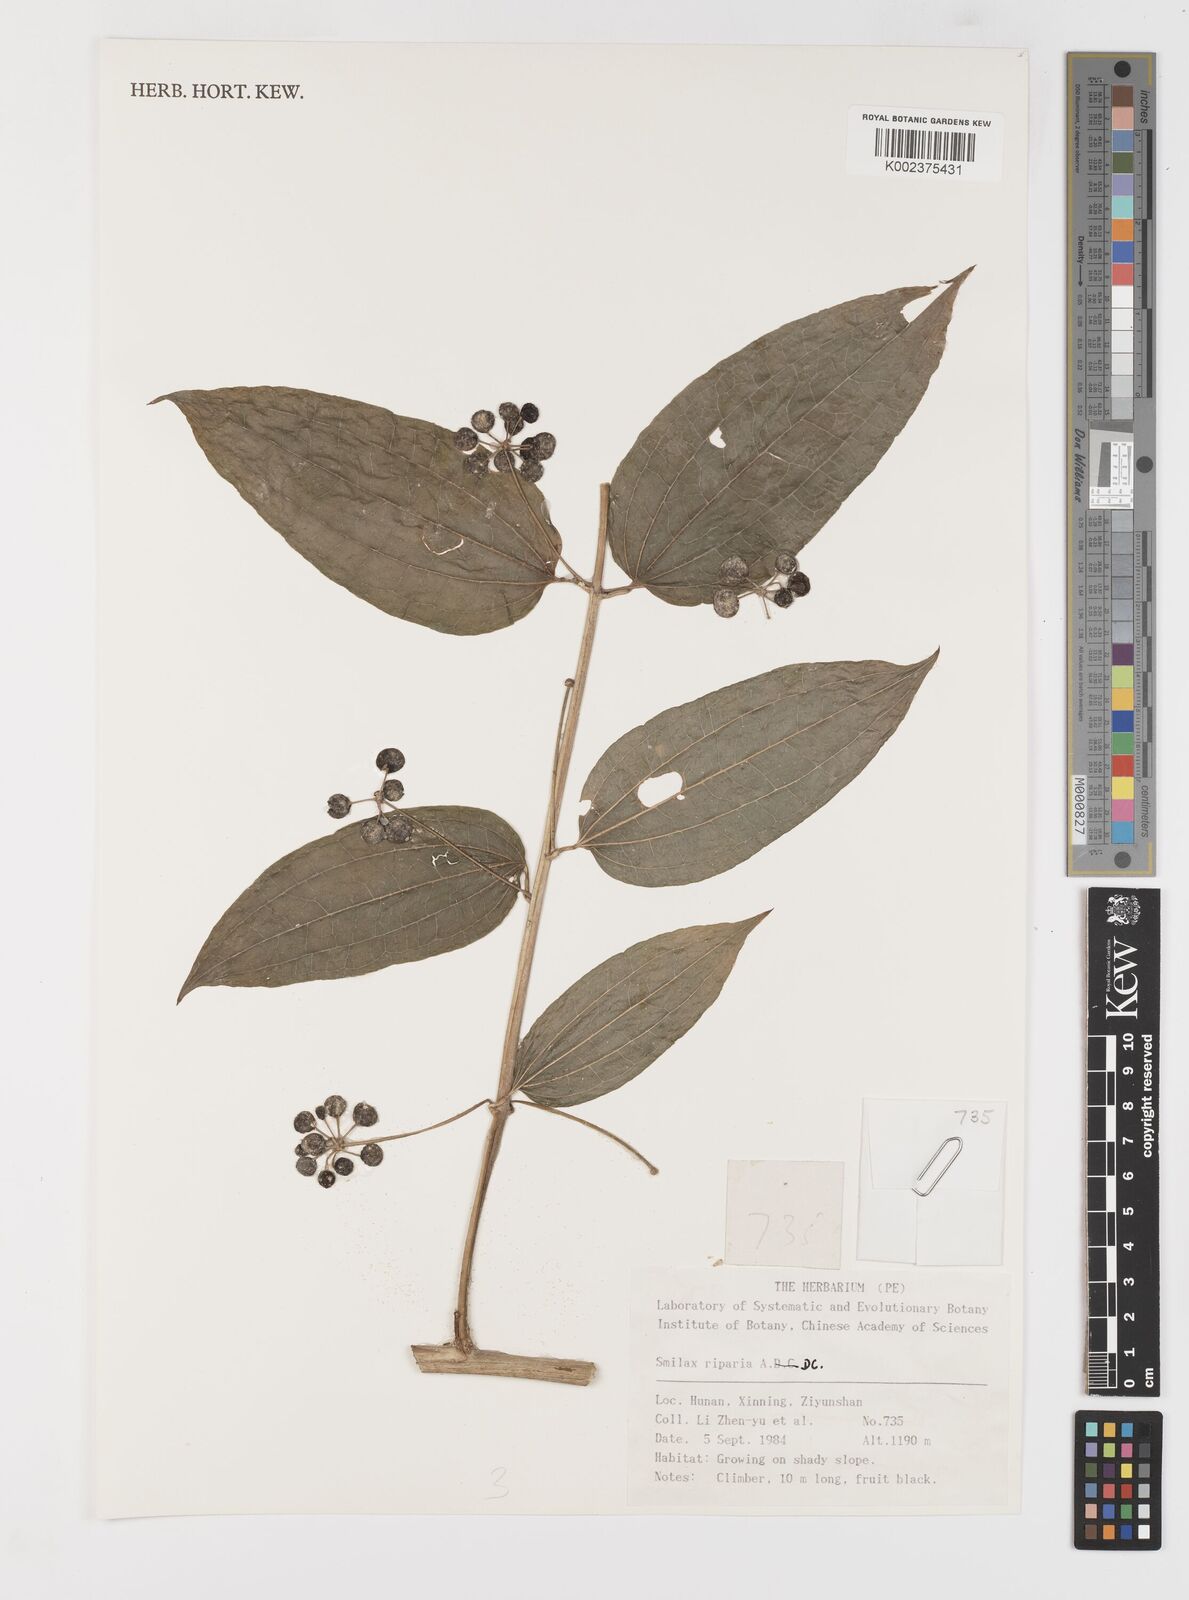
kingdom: Plantae
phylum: Tracheophyta
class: Liliopsida
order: Liliales
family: Smilacaceae
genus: Smilax
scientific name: Smilax riparia
